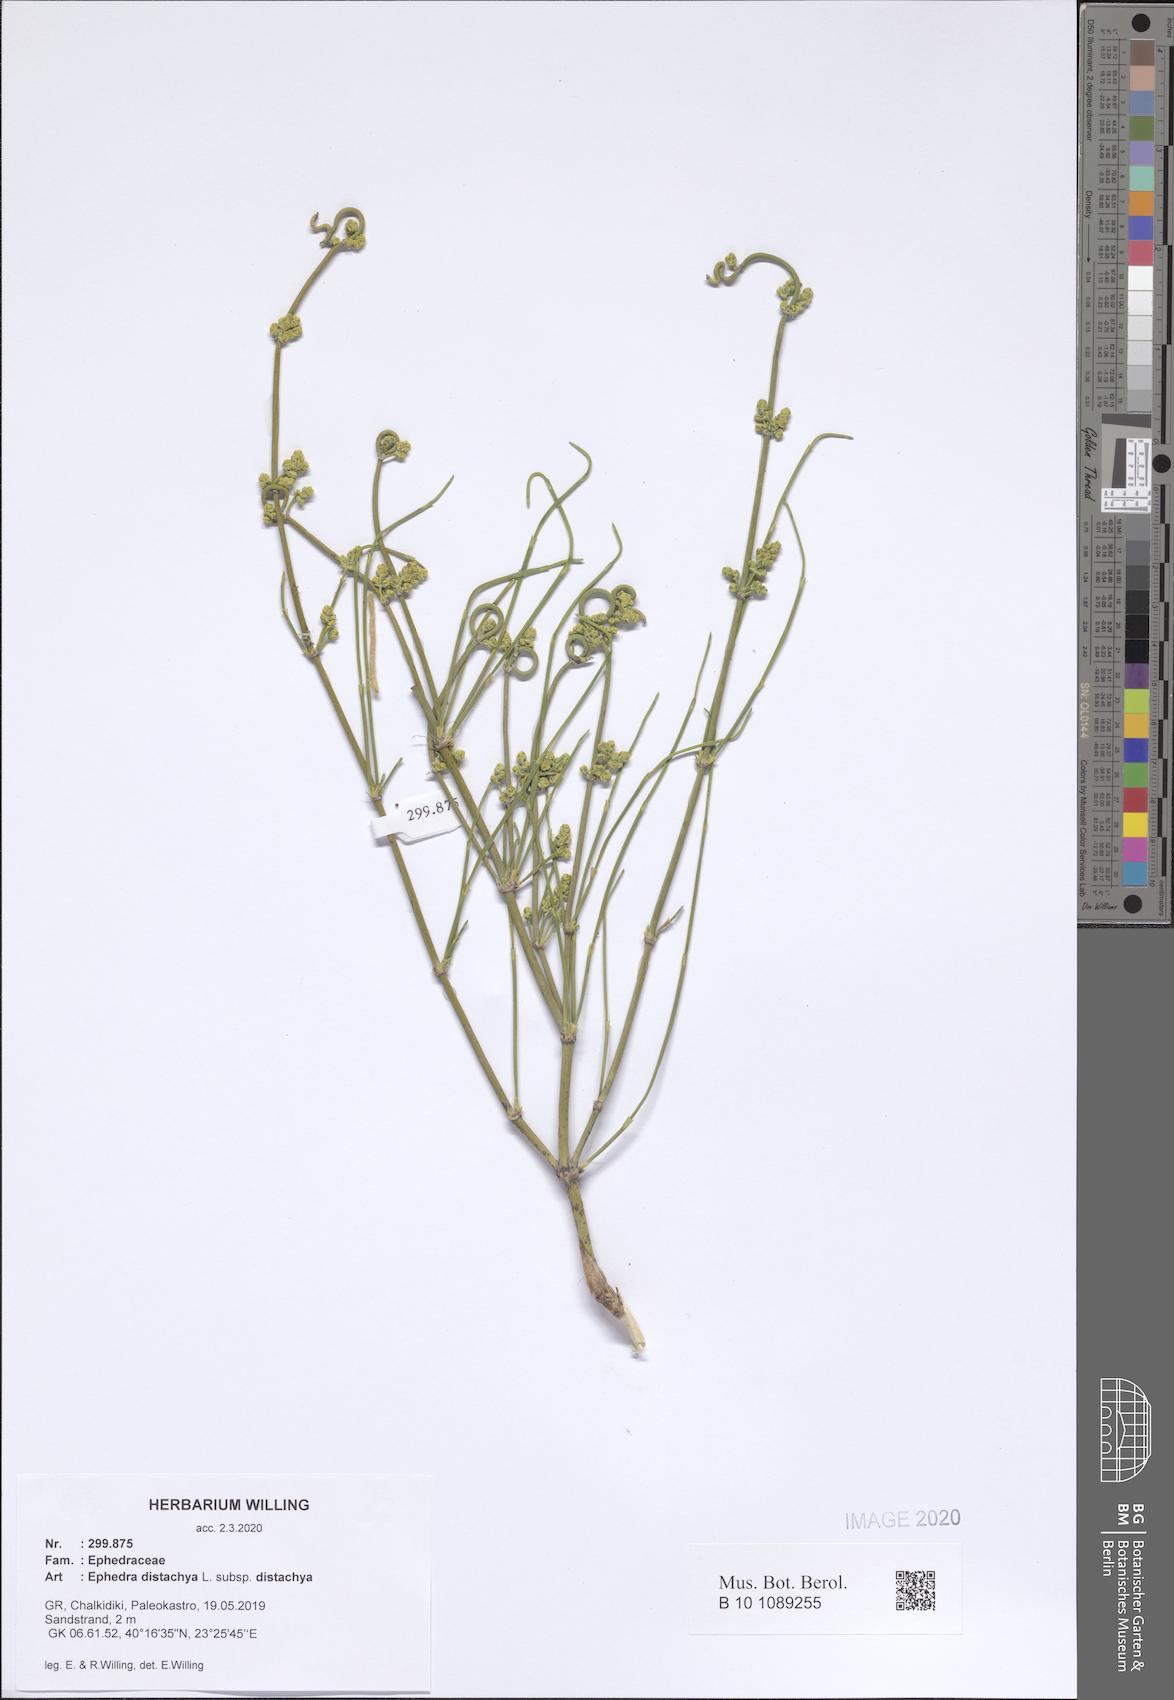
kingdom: Plantae
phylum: Tracheophyta
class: Gnetopsida
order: Ephedrales
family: Ephedraceae
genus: Ephedra
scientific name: Ephedra distachya
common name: Sea grape
